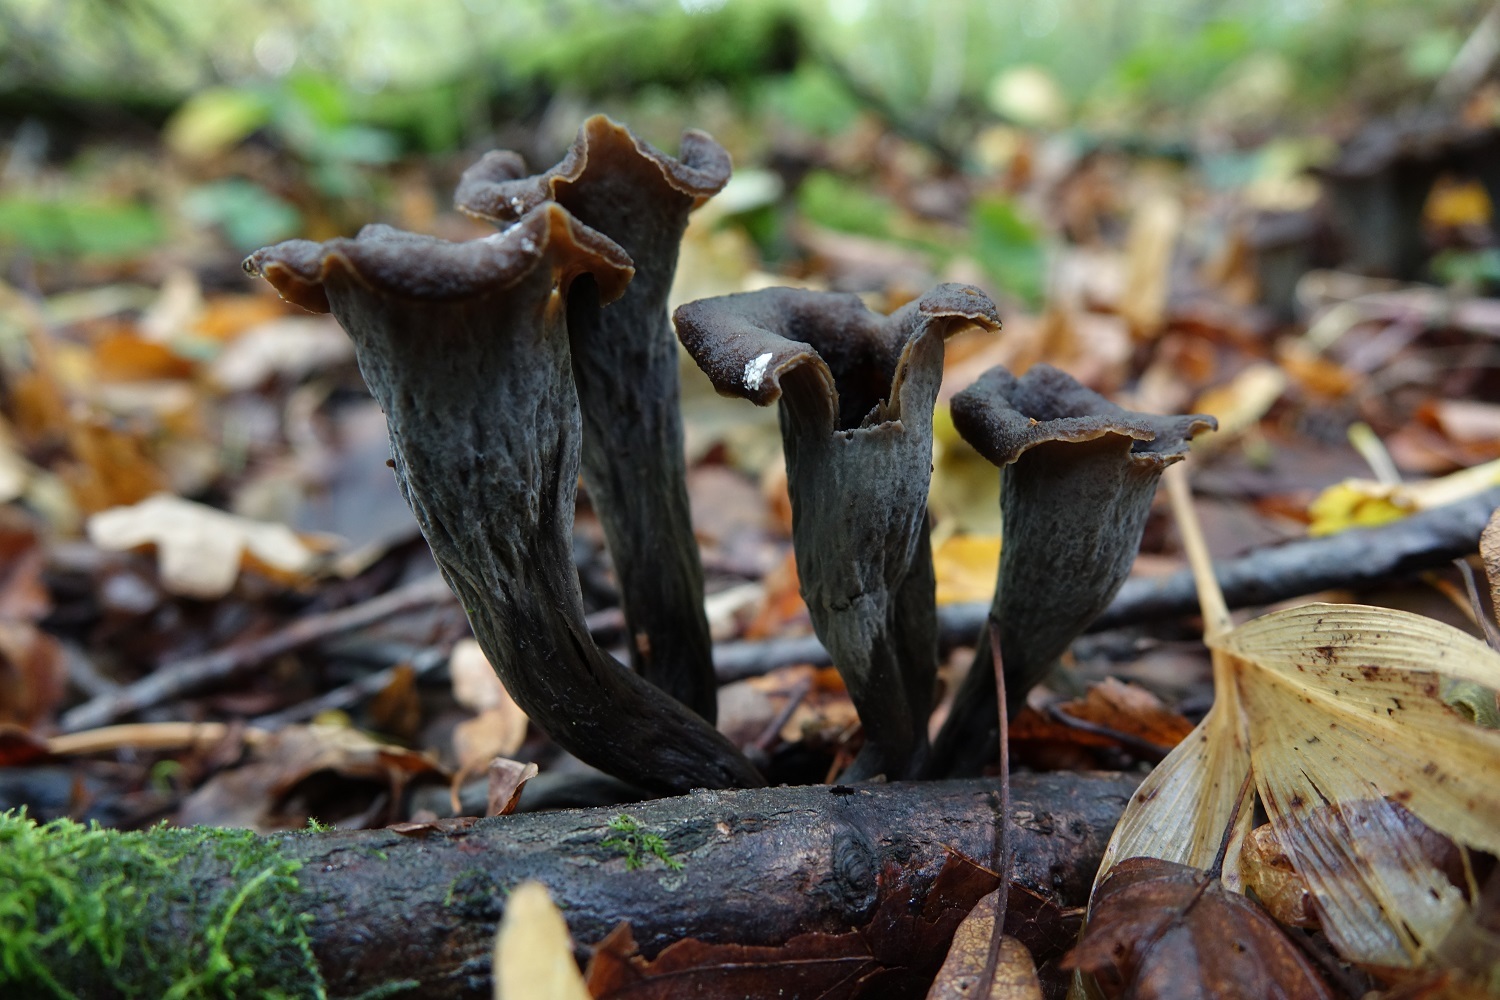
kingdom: Fungi
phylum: Basidiomycota
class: Agaricomycetes
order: Cantharellales
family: Hydnaceae
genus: Craterellus
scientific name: Craterellus cornucopioides
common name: Horn of plenty
